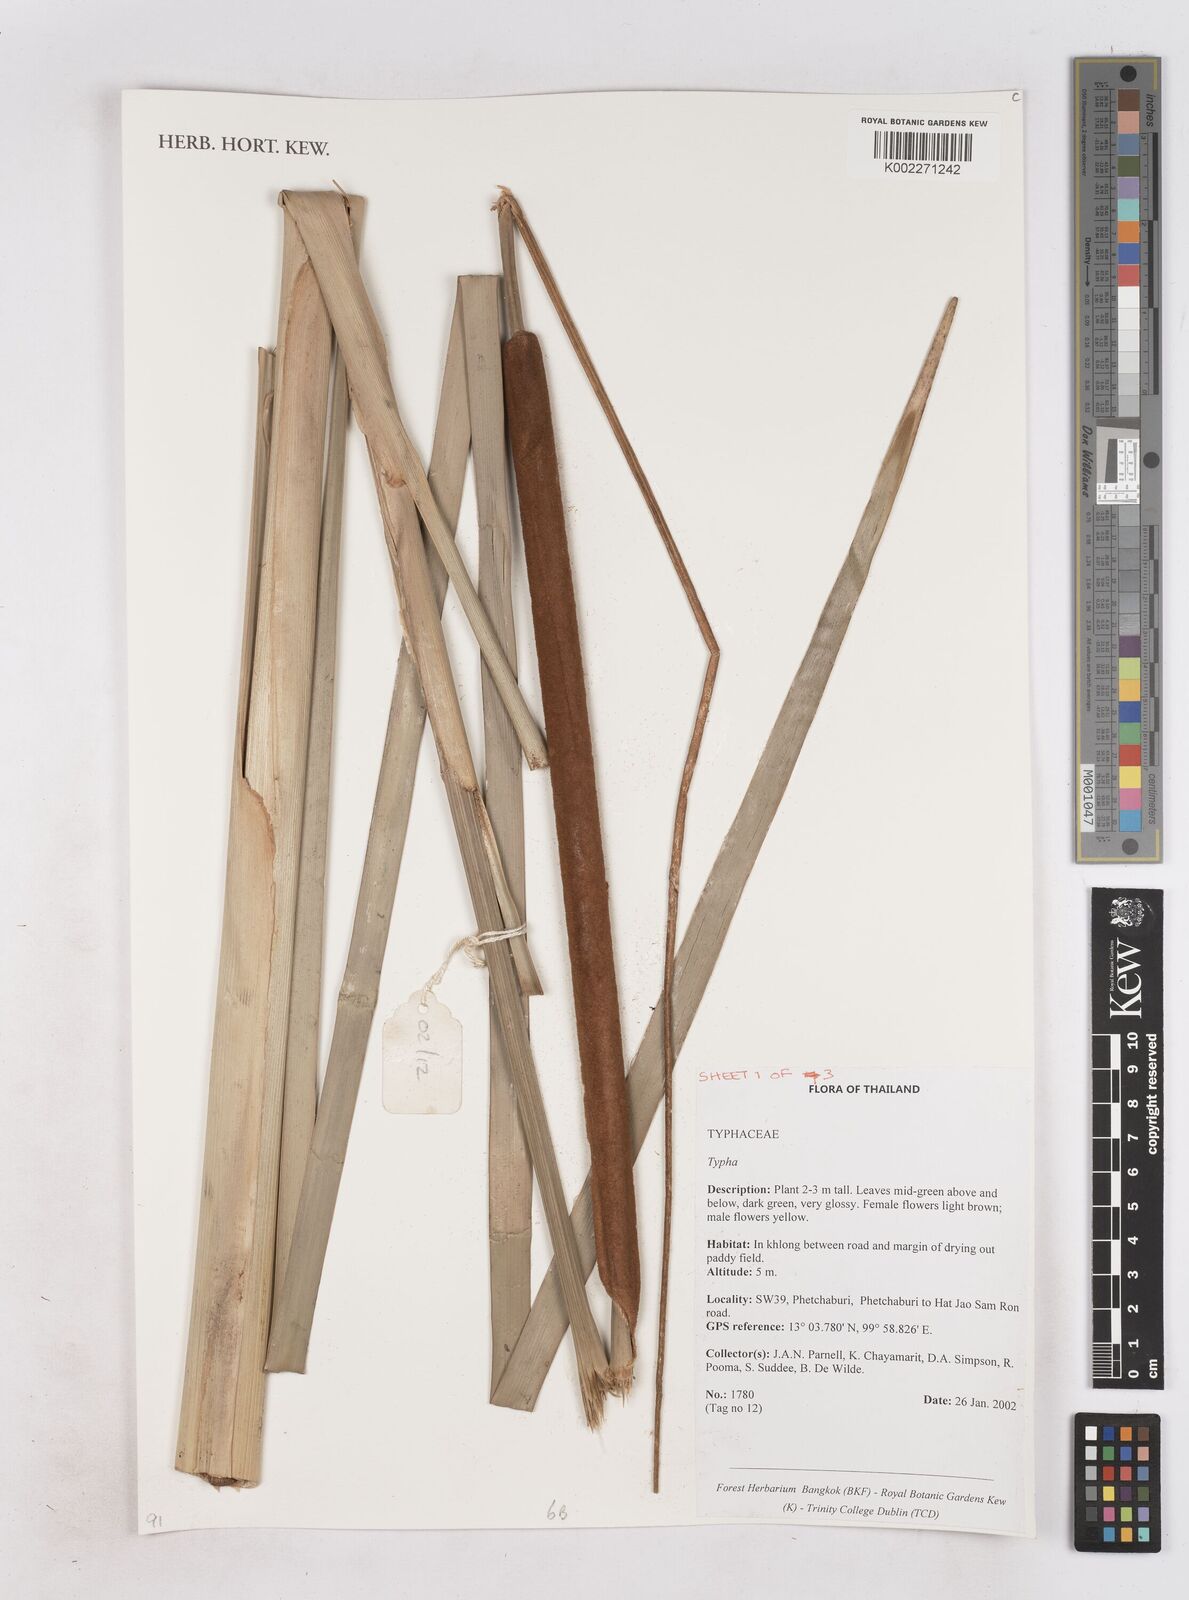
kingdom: Plantae
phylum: Tracheophyta
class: Liliopsida
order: Poales
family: Typhaceae
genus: Typha
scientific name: Typha
